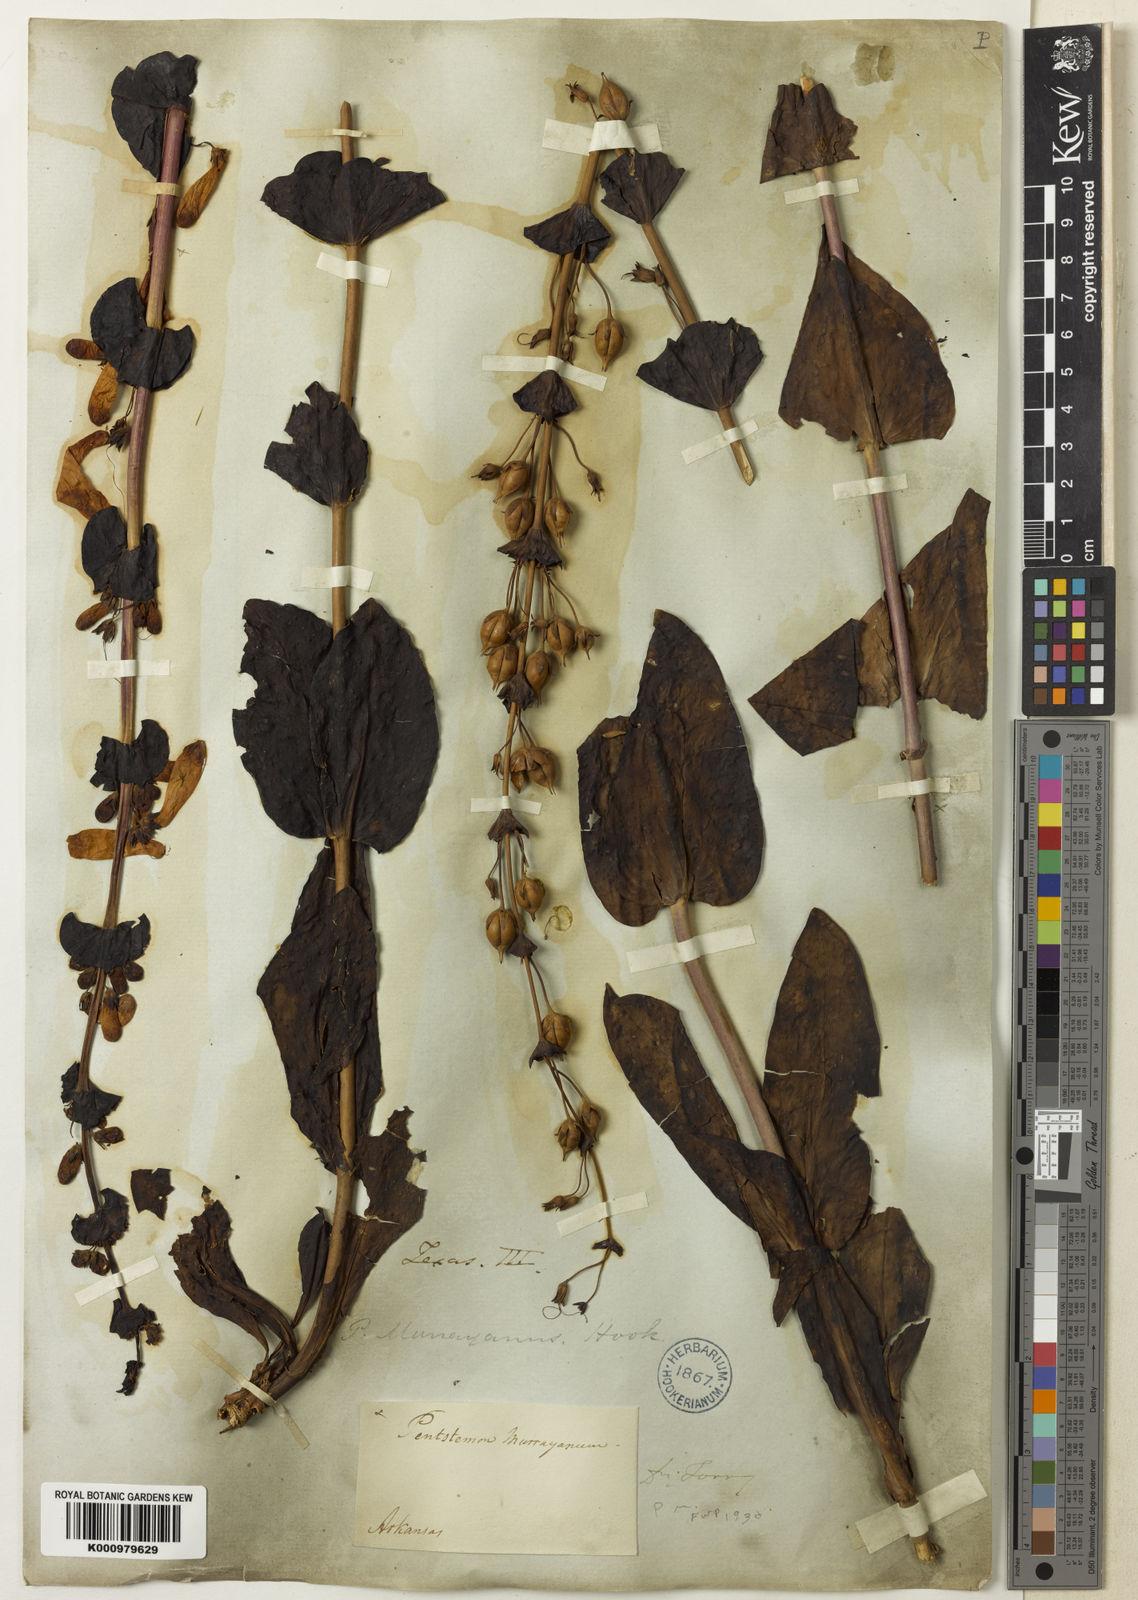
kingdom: Plantae
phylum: Tracheophyta
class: Magnoliopsida
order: Lamiales
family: Plantaginaceae
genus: Penstemon
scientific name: Penstemon murrayanus
